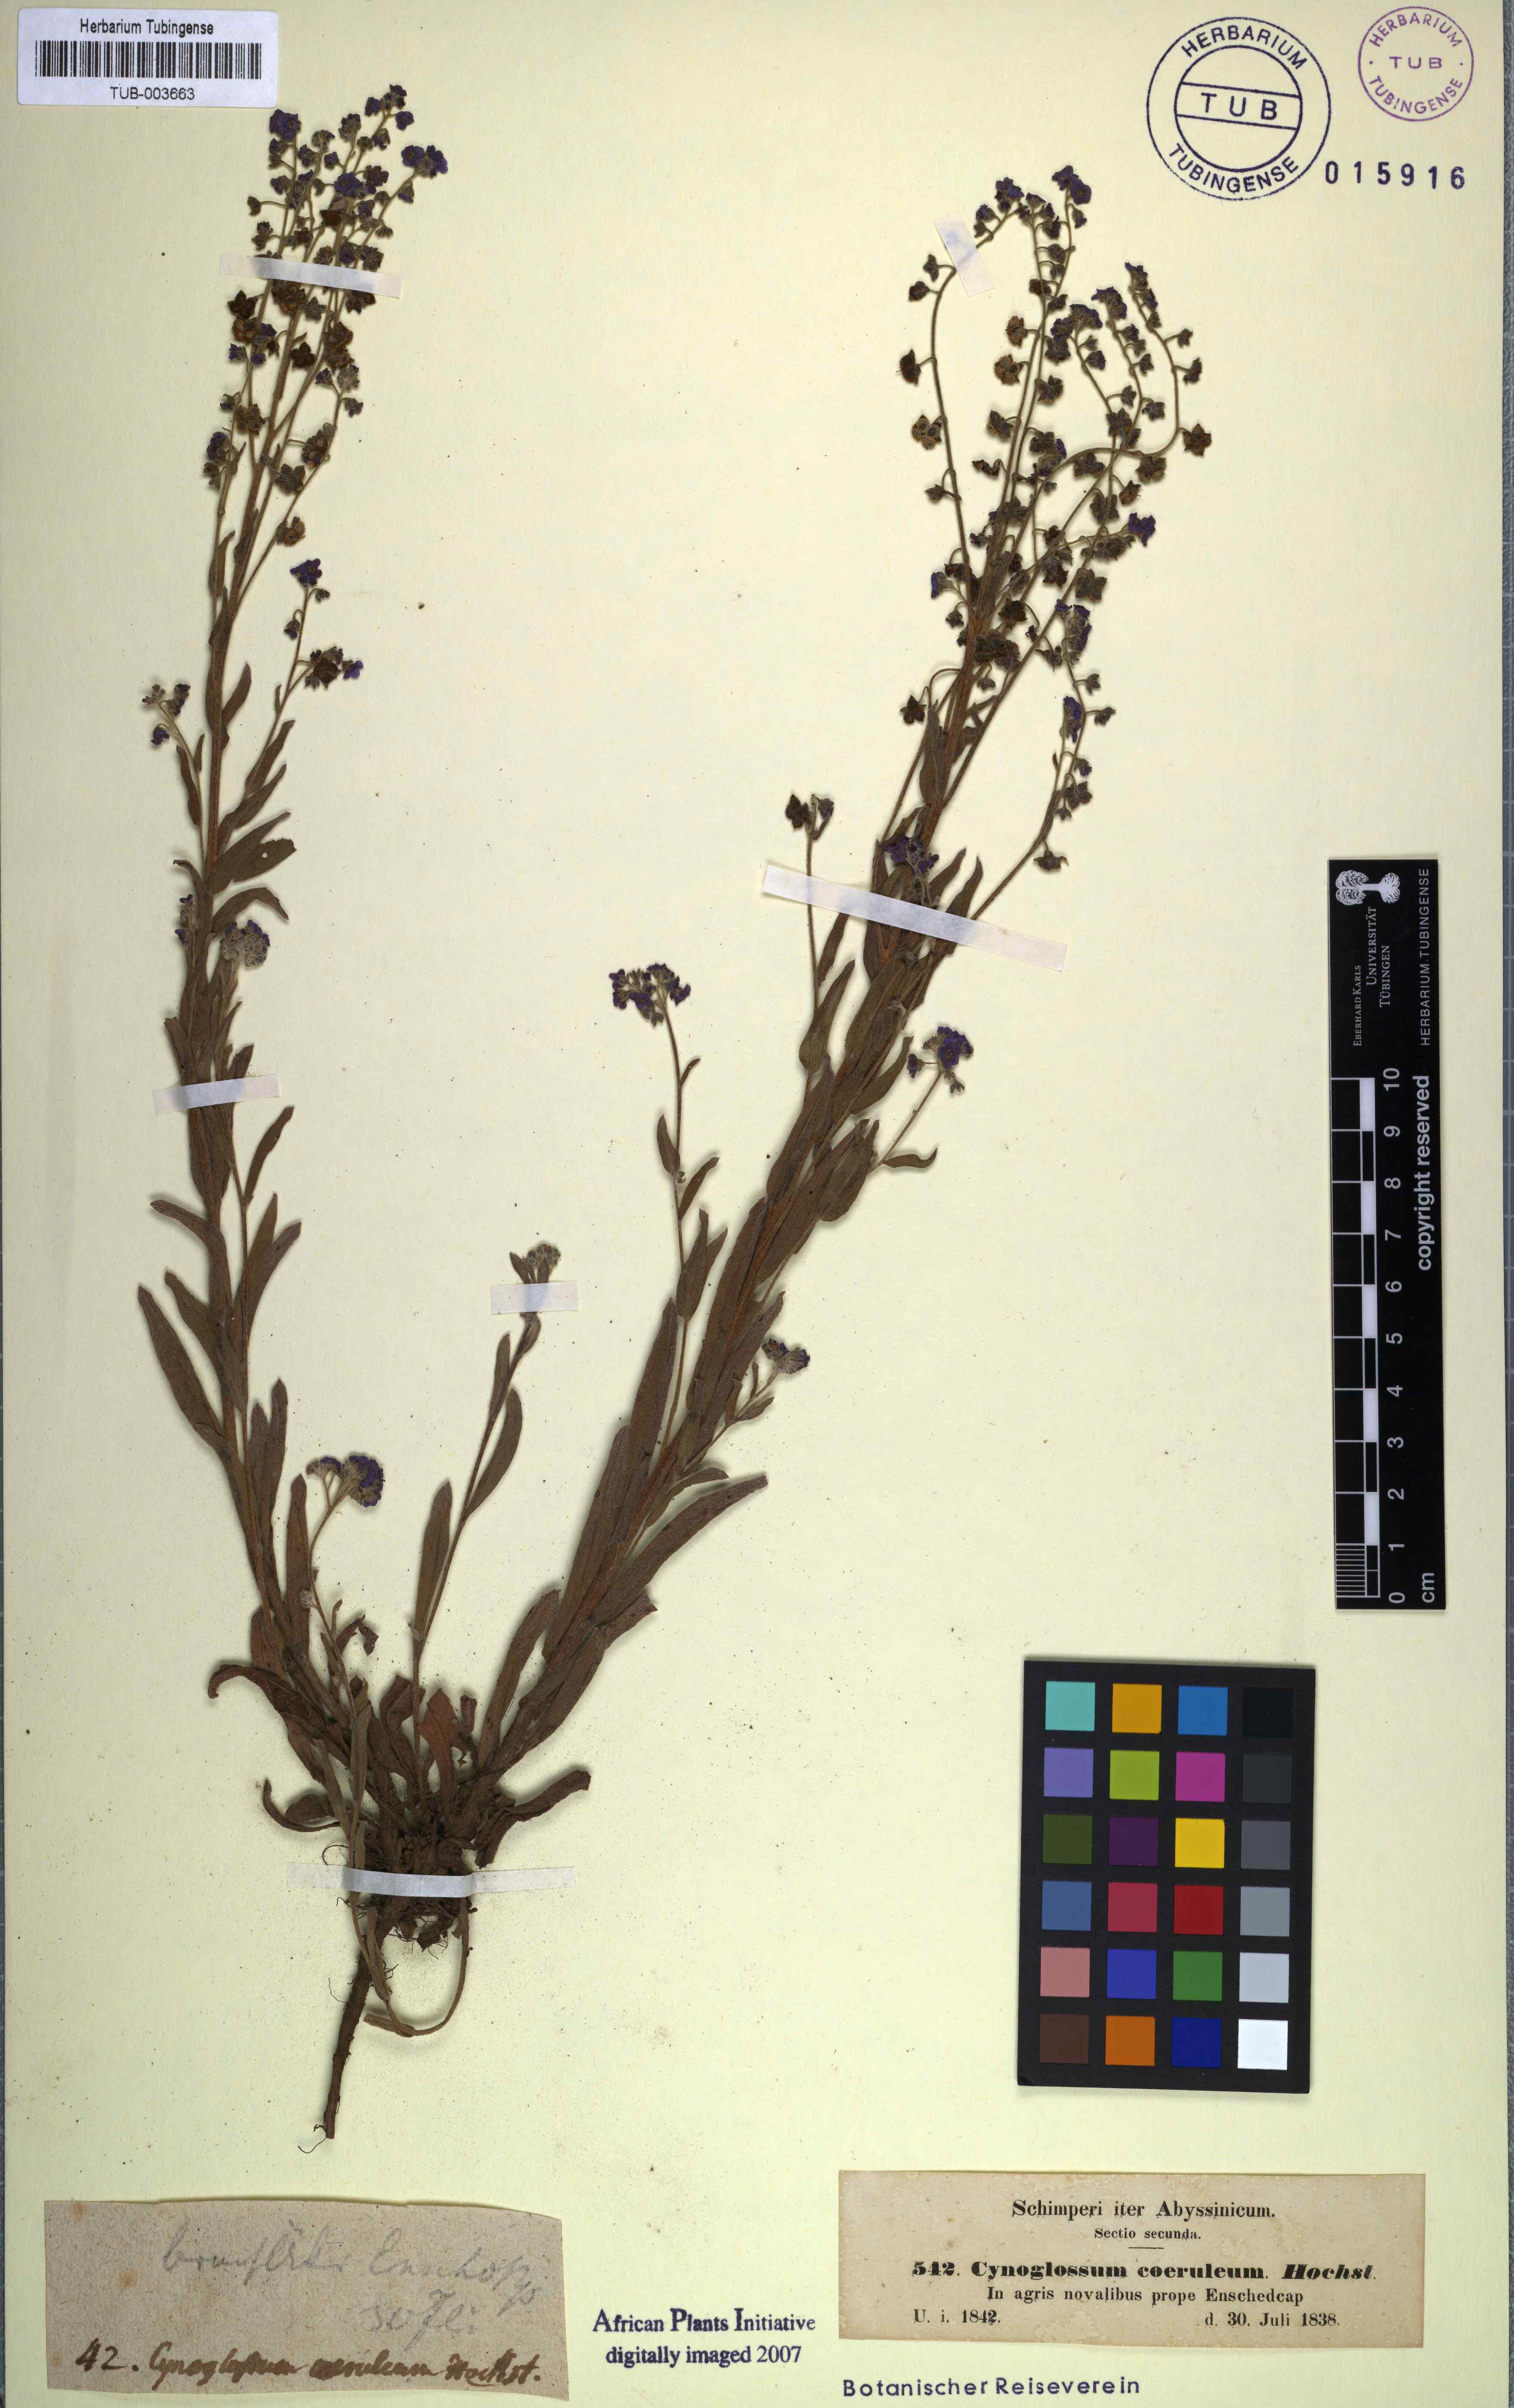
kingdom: Plantae
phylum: Tracheophyta
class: Magnoliopsida
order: Boraginales
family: Boraginaceae
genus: Paracynoglossum
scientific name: Paracynoglossum afrocaeruleum
